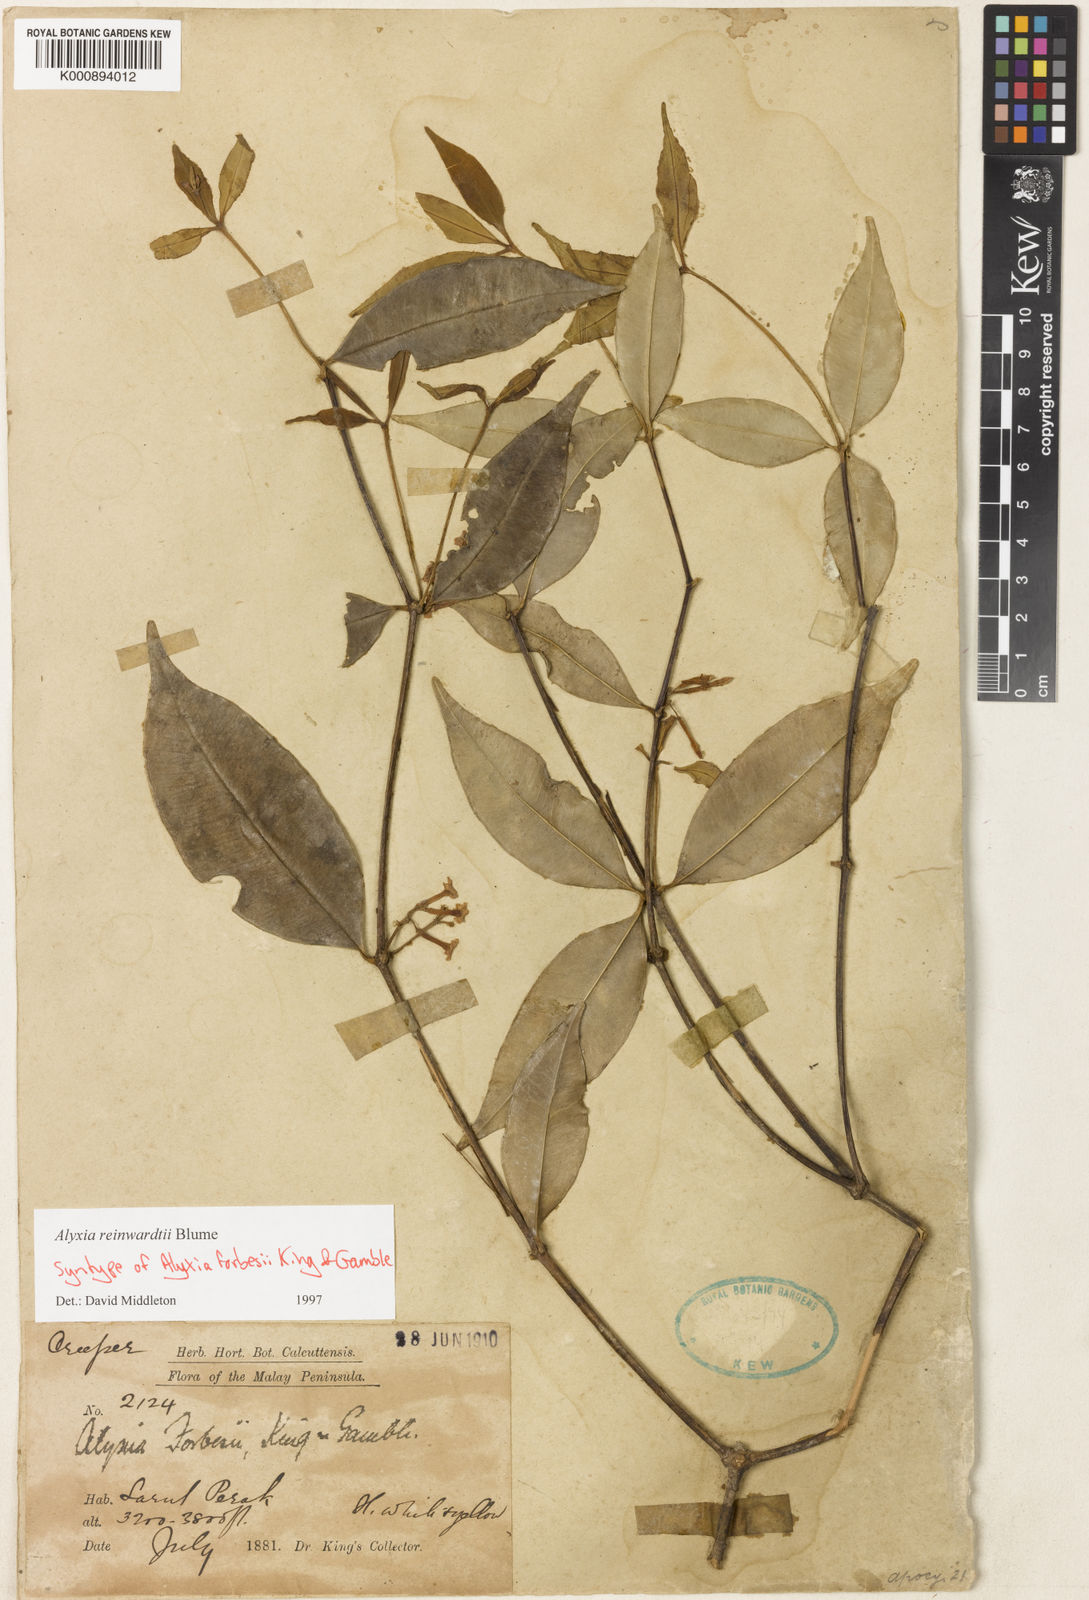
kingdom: Plantae
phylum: Tracheophyta
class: Magnoliopsida
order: Gentianales
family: Apocynaceae
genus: Alyxia
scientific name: Alyxia reinwardtii
